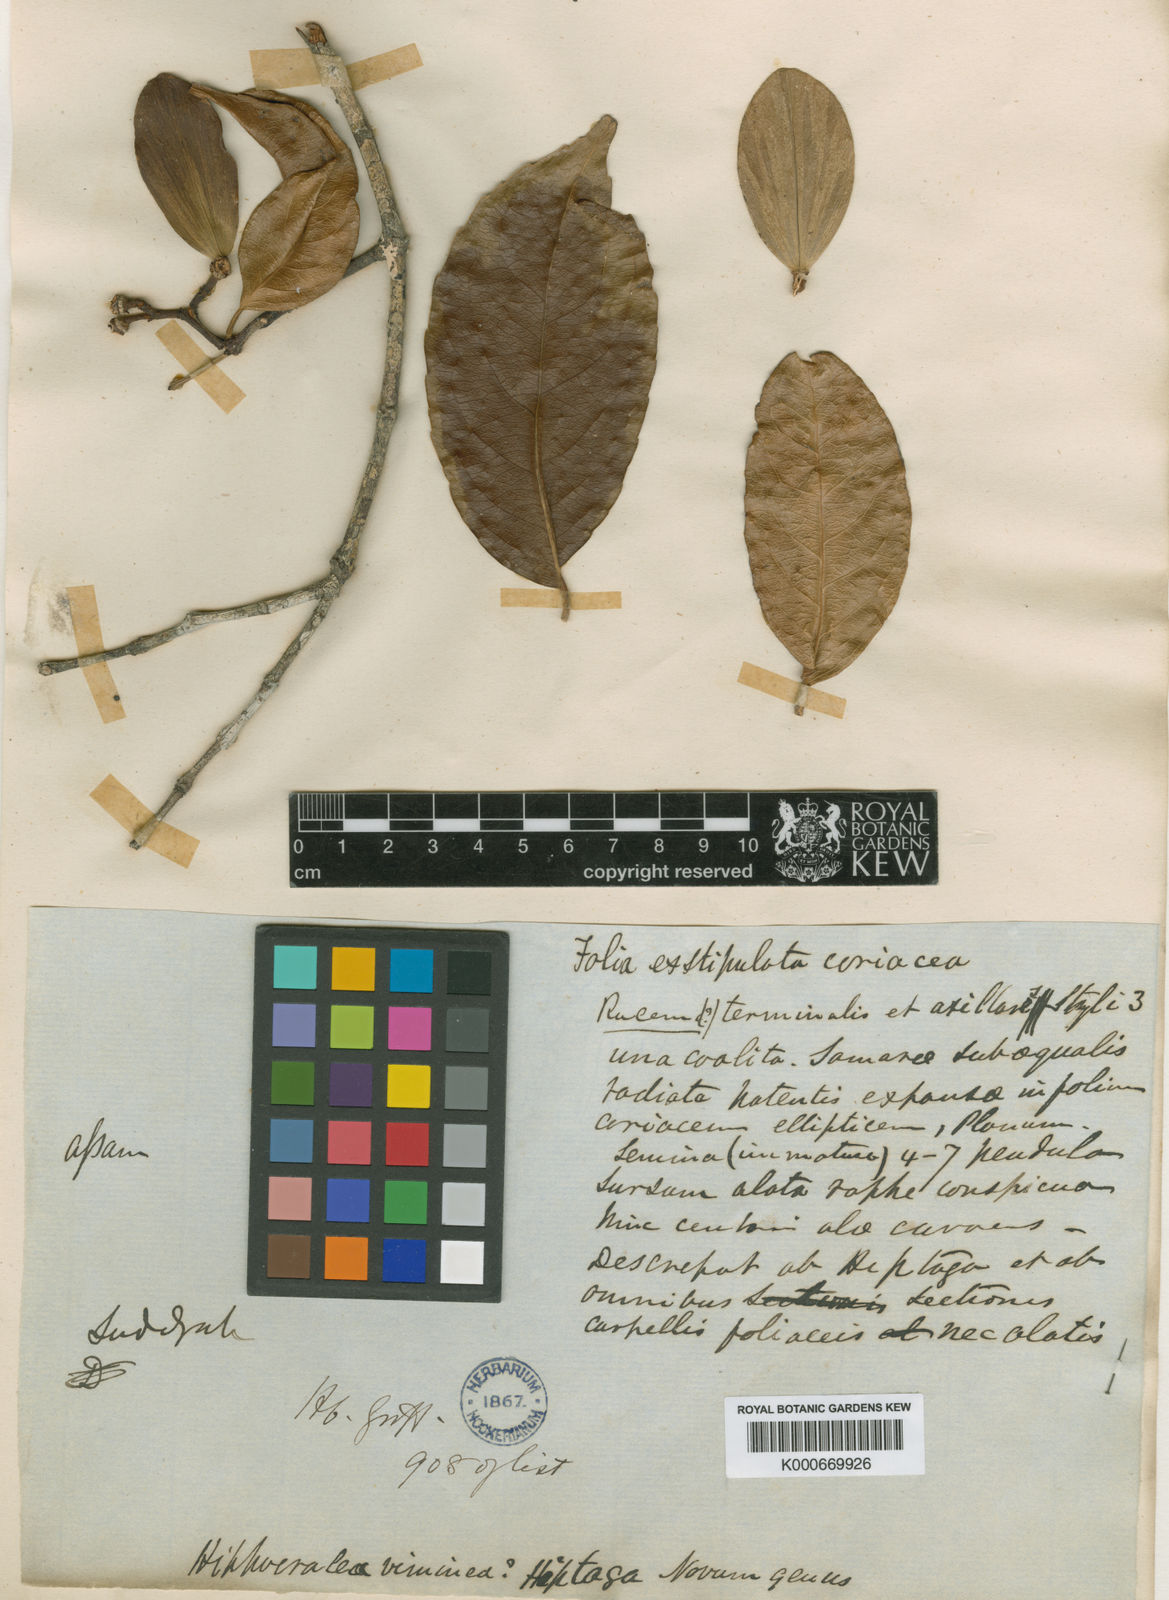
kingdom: Plantae
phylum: Tracheophyta
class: Magnoliopsida
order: Celastrales
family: Celastraceae
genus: Loeseneriella
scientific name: Loeseneriella obtusifolia
